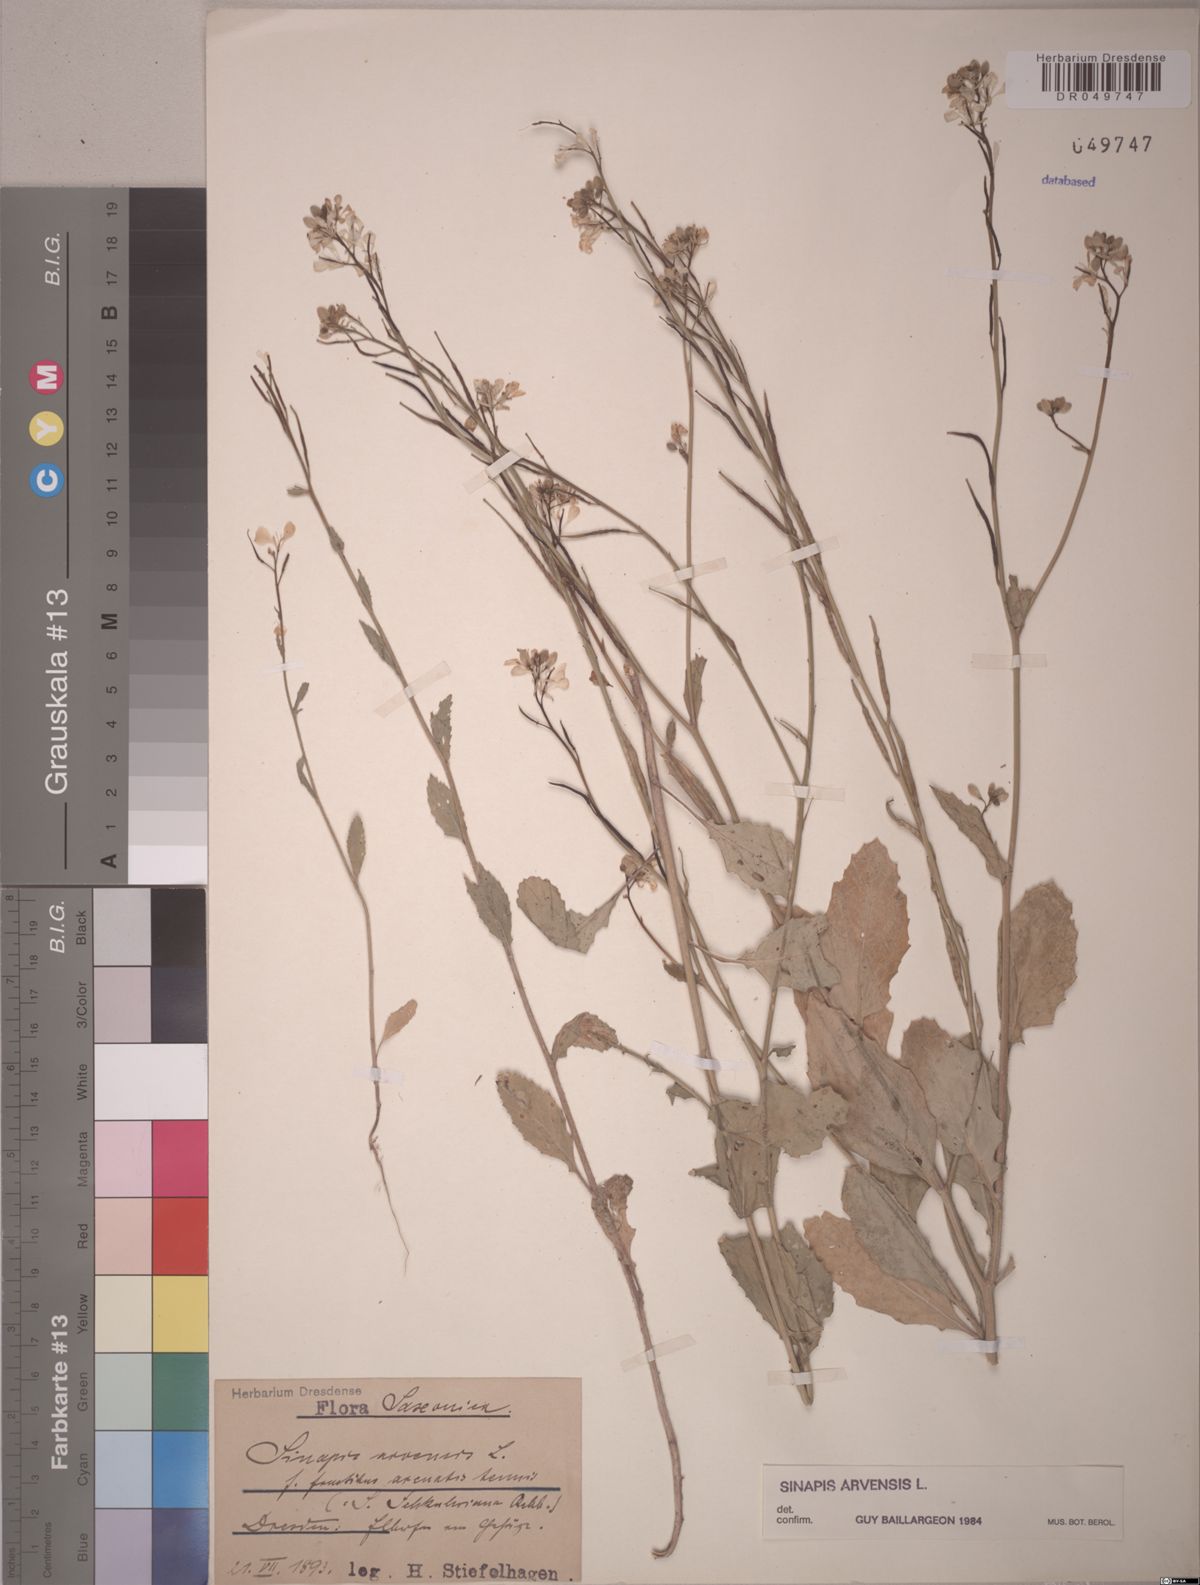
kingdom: Plantae
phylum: Tracheophyta
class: Magnoliopsida
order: Brassicales
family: Brassicaceae
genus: Sinapis
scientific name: Sinapis arvensis
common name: Charlock
